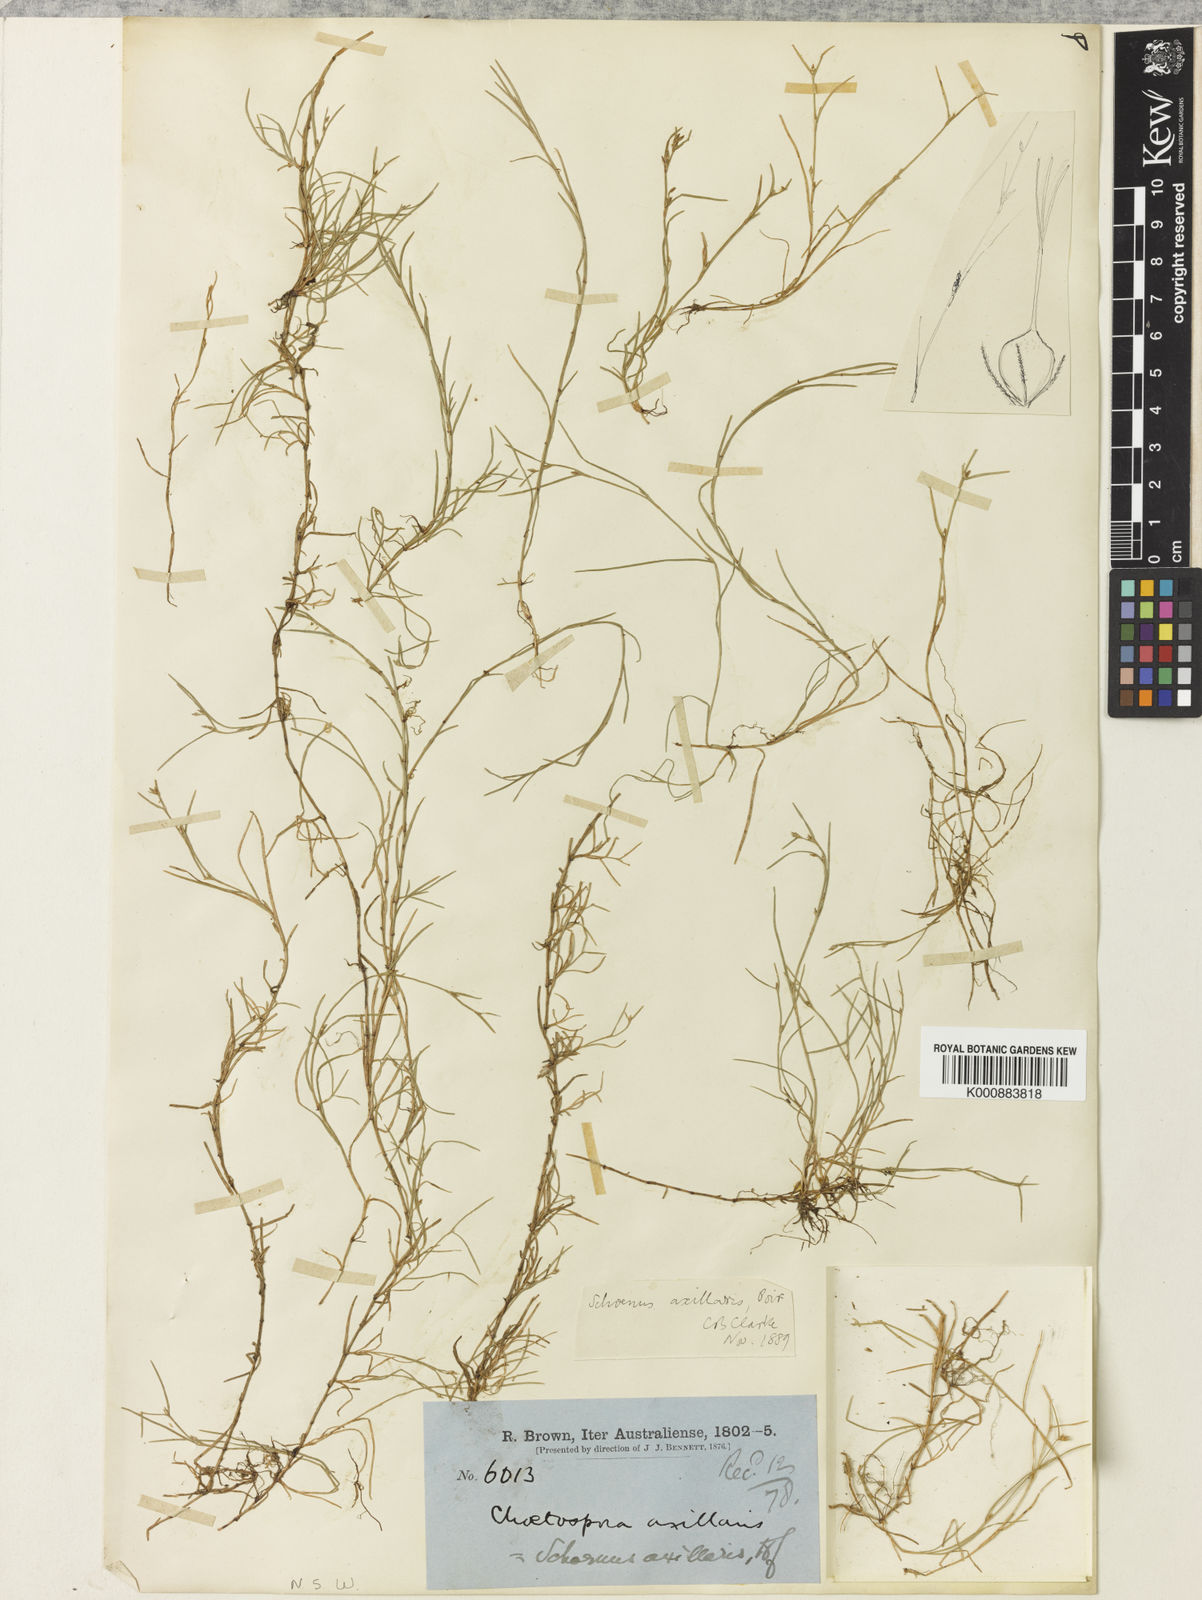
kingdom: Plantae
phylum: Tracheophyta
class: Liliopsida
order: Poales
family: Cyperaceae
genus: Schoenus
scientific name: Schoenus maschalinus
